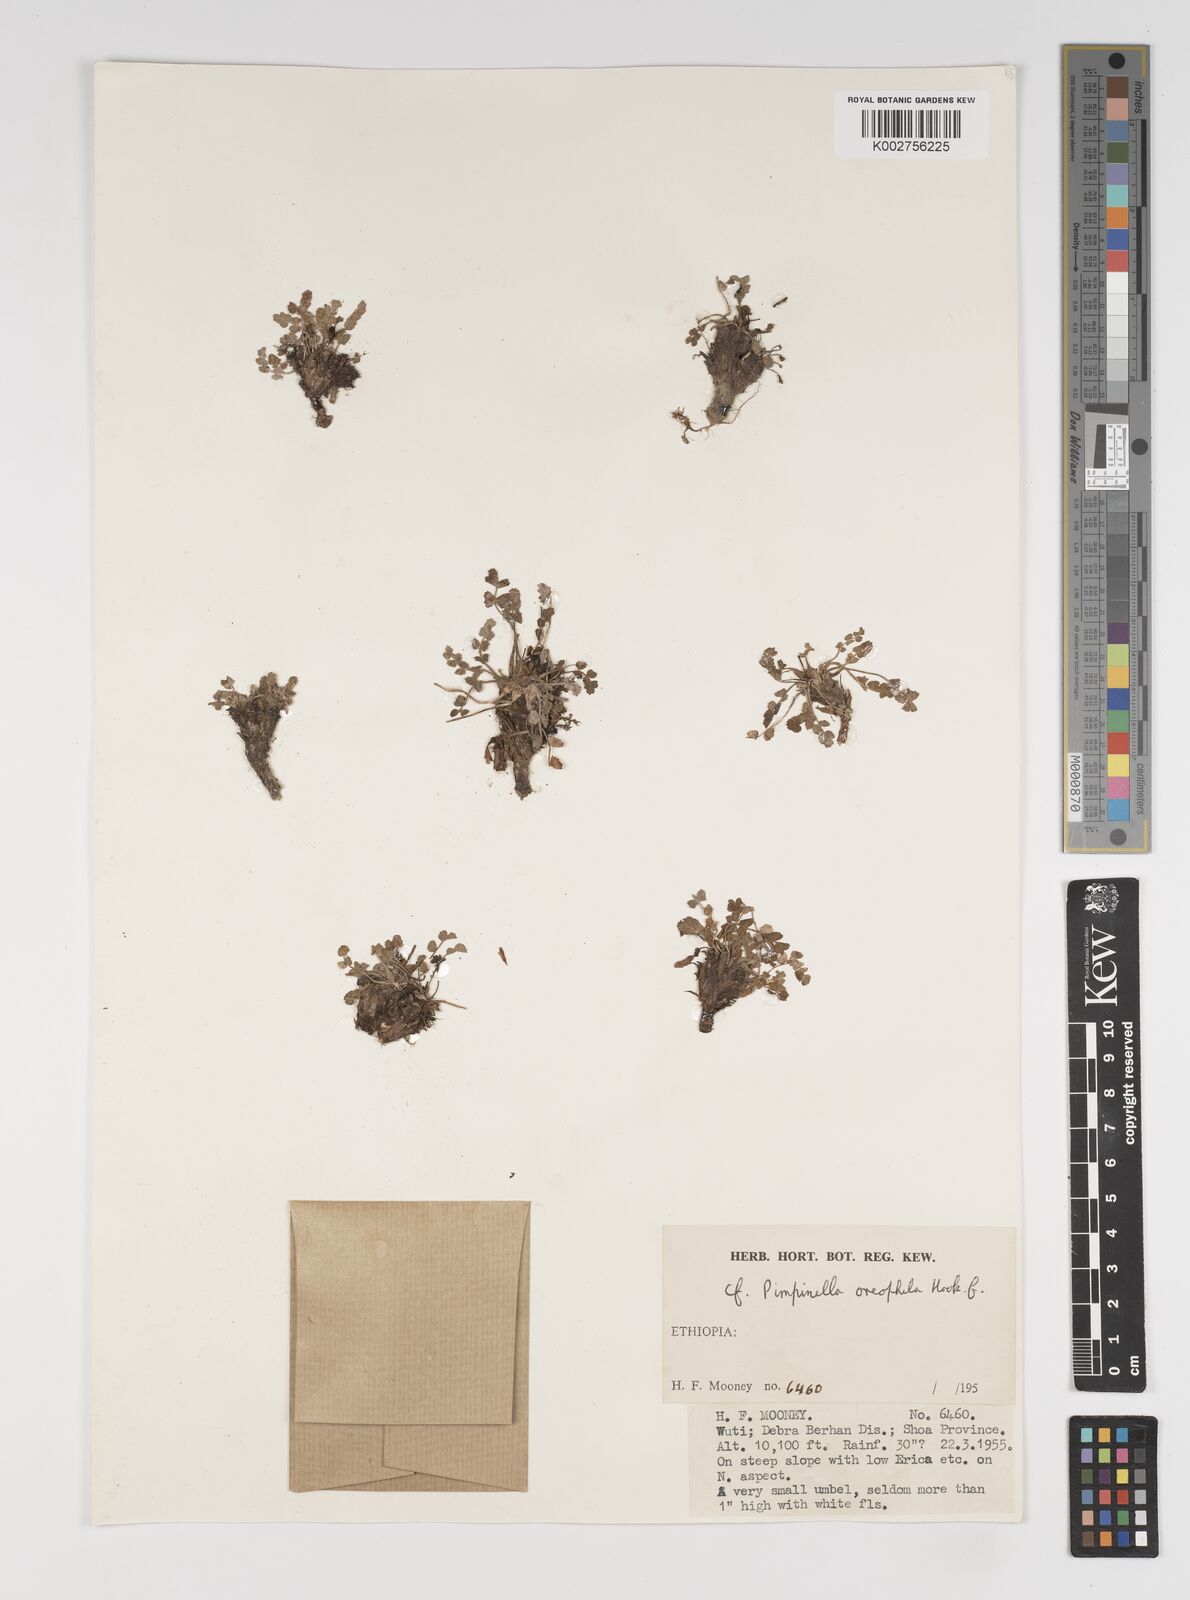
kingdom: Plantae
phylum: Tracheophyta
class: Magnoliopsida
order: Apiales
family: Apiaceae
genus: Pimpinella
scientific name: Pimpinella oreophila
